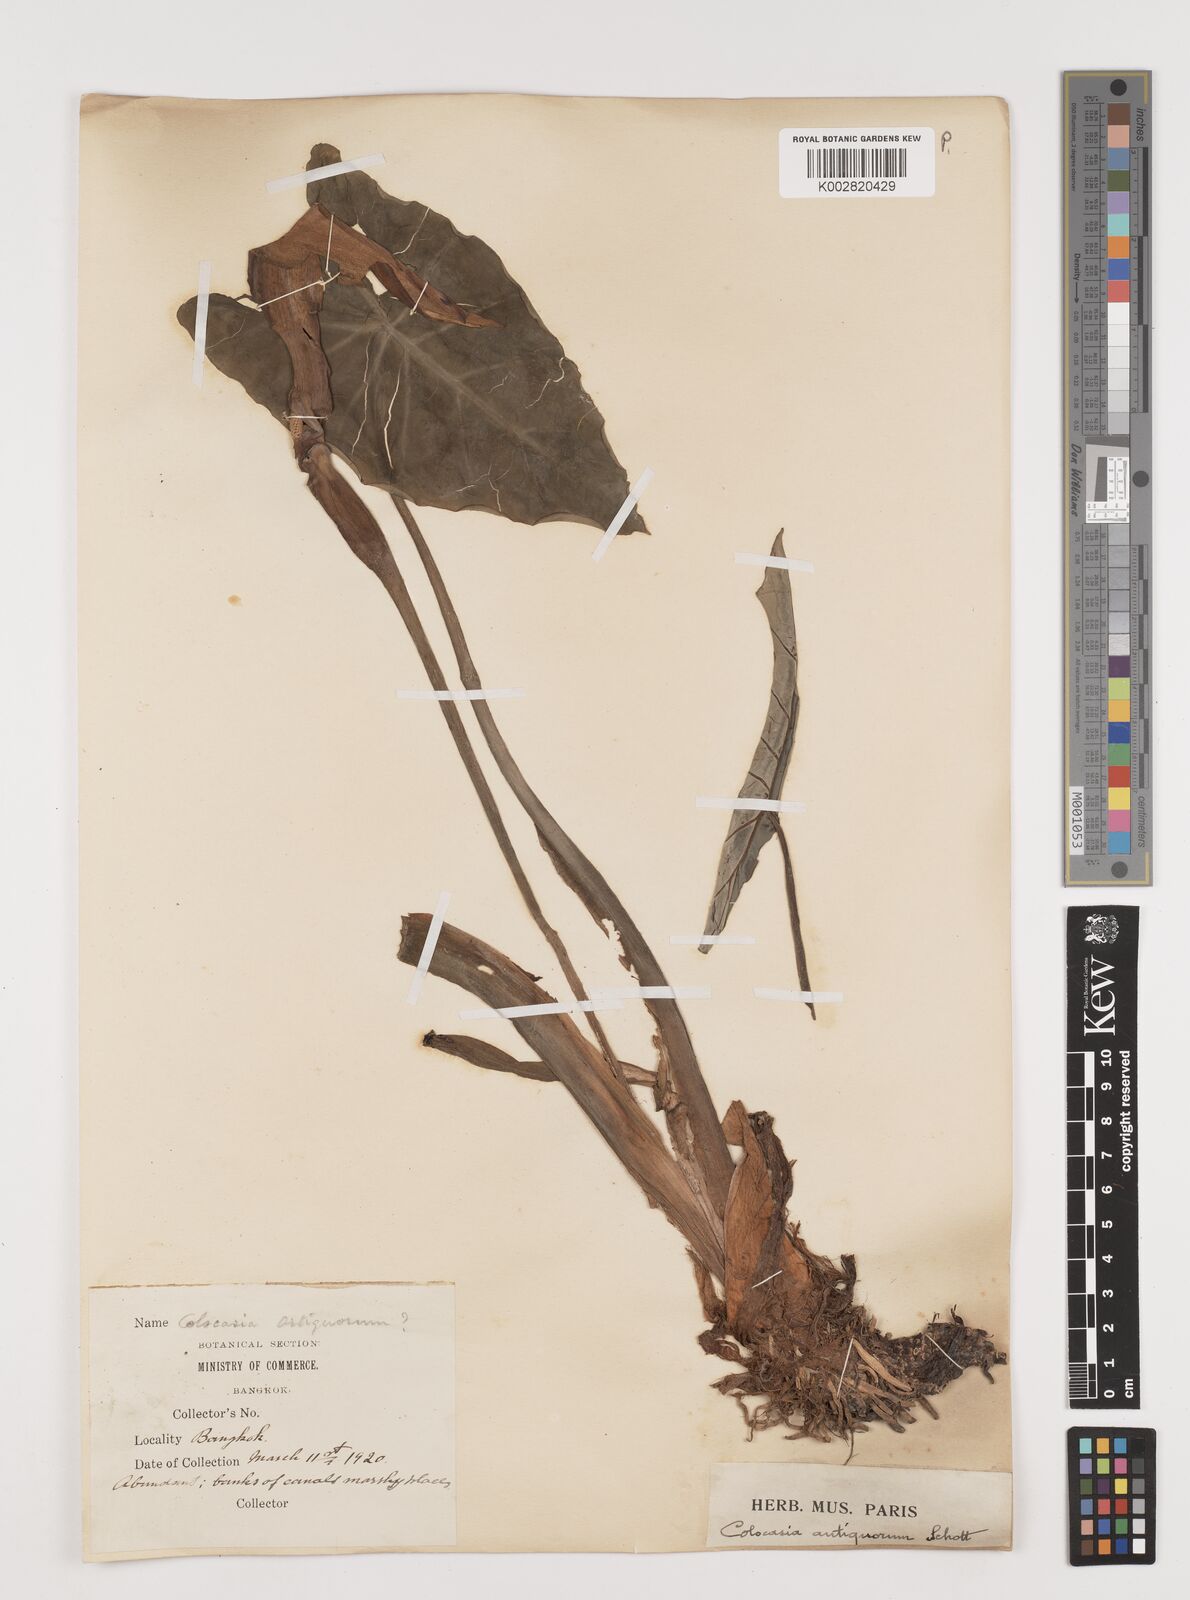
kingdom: Plantae
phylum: Tracheophyta
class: Liliopsida
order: Alismatales
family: Araceae
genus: Colocasia
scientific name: Colocasia esculenta
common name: Taro
